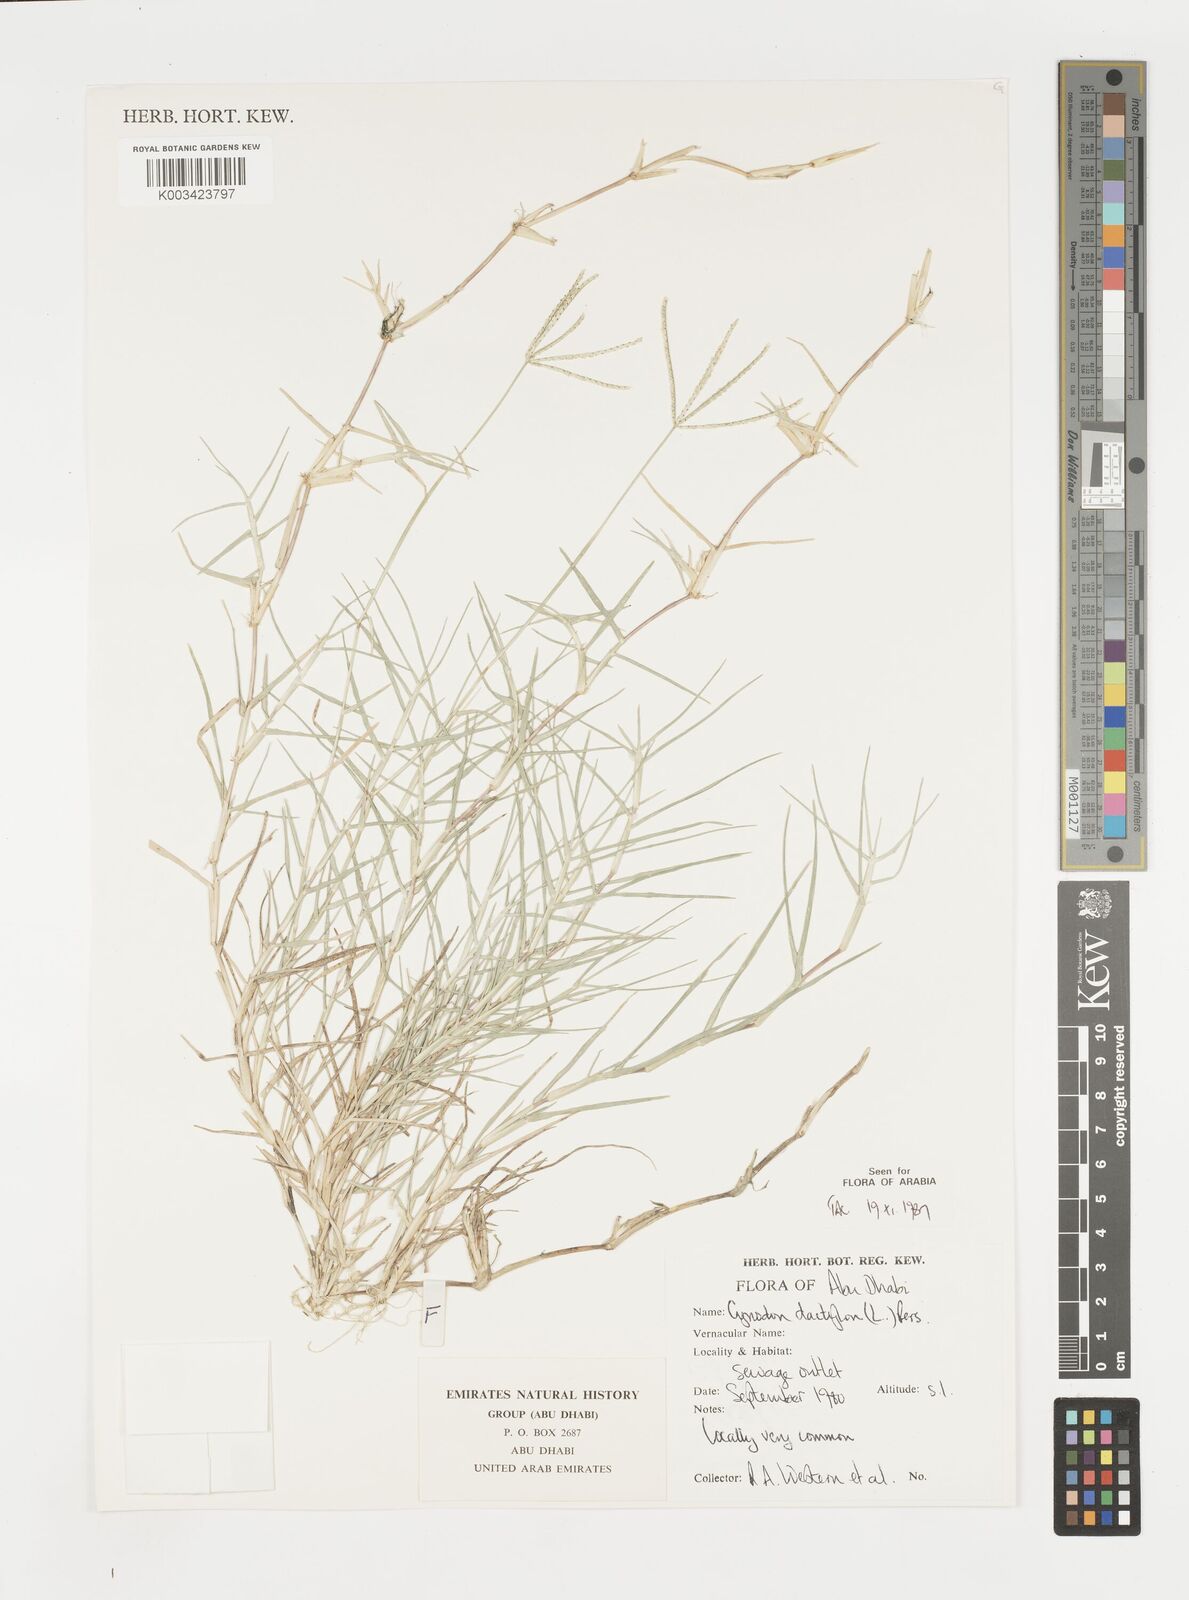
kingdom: Plantae
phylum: Tracheophyta
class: Liliopsida
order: Poales
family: Poaceae
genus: Cynodon
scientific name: Cynodon dactylon
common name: Bermuda grass
